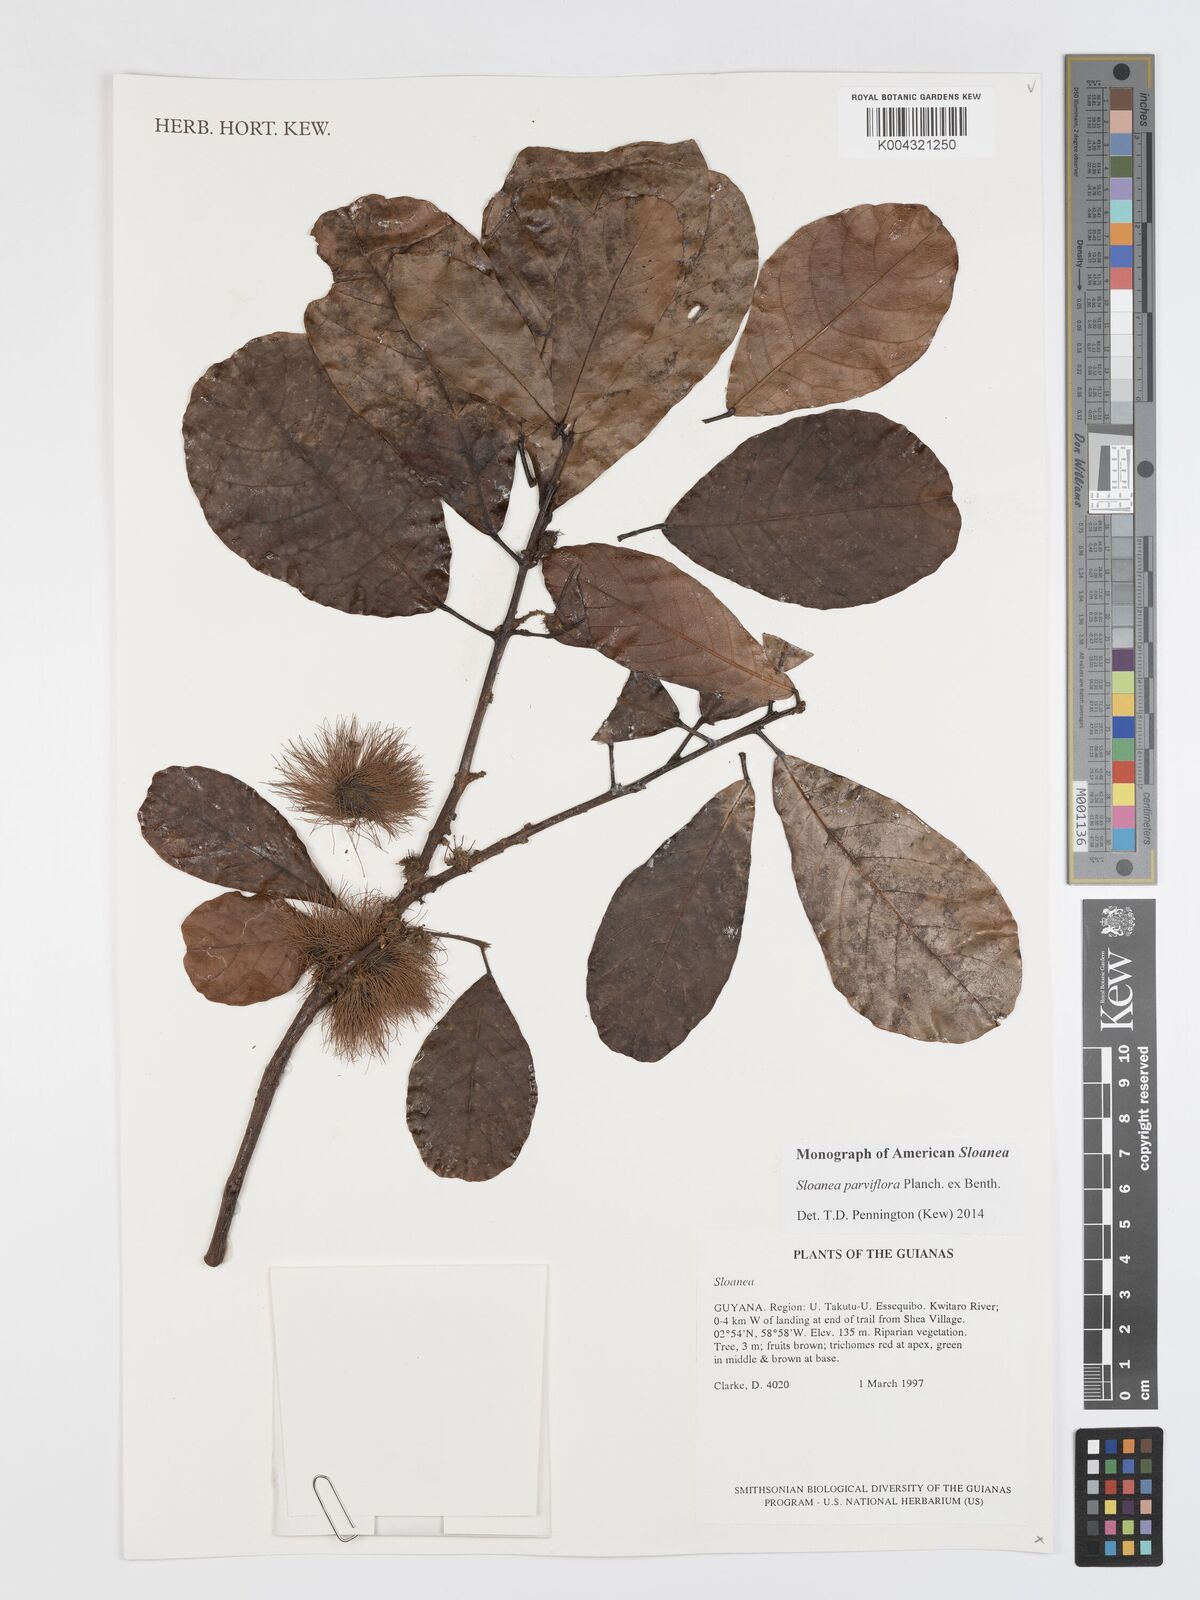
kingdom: Plantae
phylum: Tracheophyta
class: Magnoliopsida
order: Oxalidales
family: Elaeocarpaceae
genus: Sloanea
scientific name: Sloanea kappleriana
